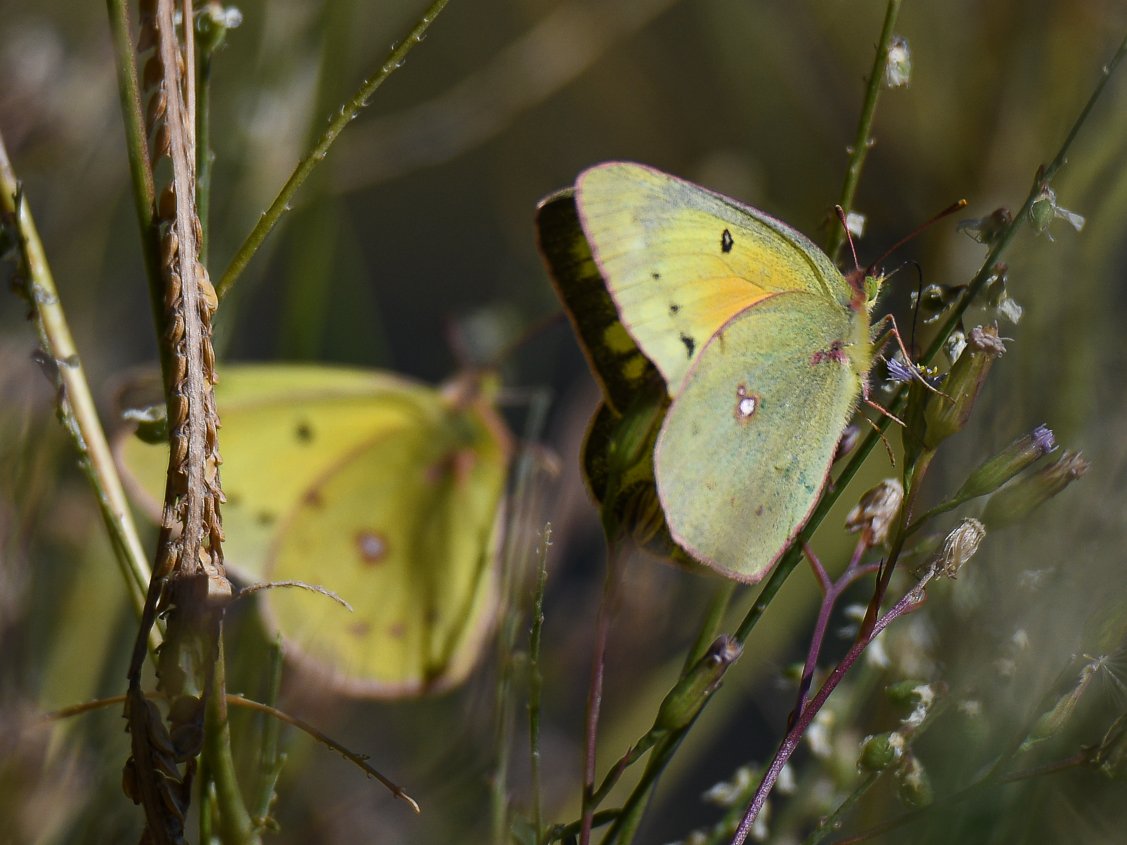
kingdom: Animalia
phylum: Arthropoda
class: Insecta
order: Lepidoptera
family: Pieridae
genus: Colias
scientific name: Colias eurytheme
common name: Orange Sulphur
